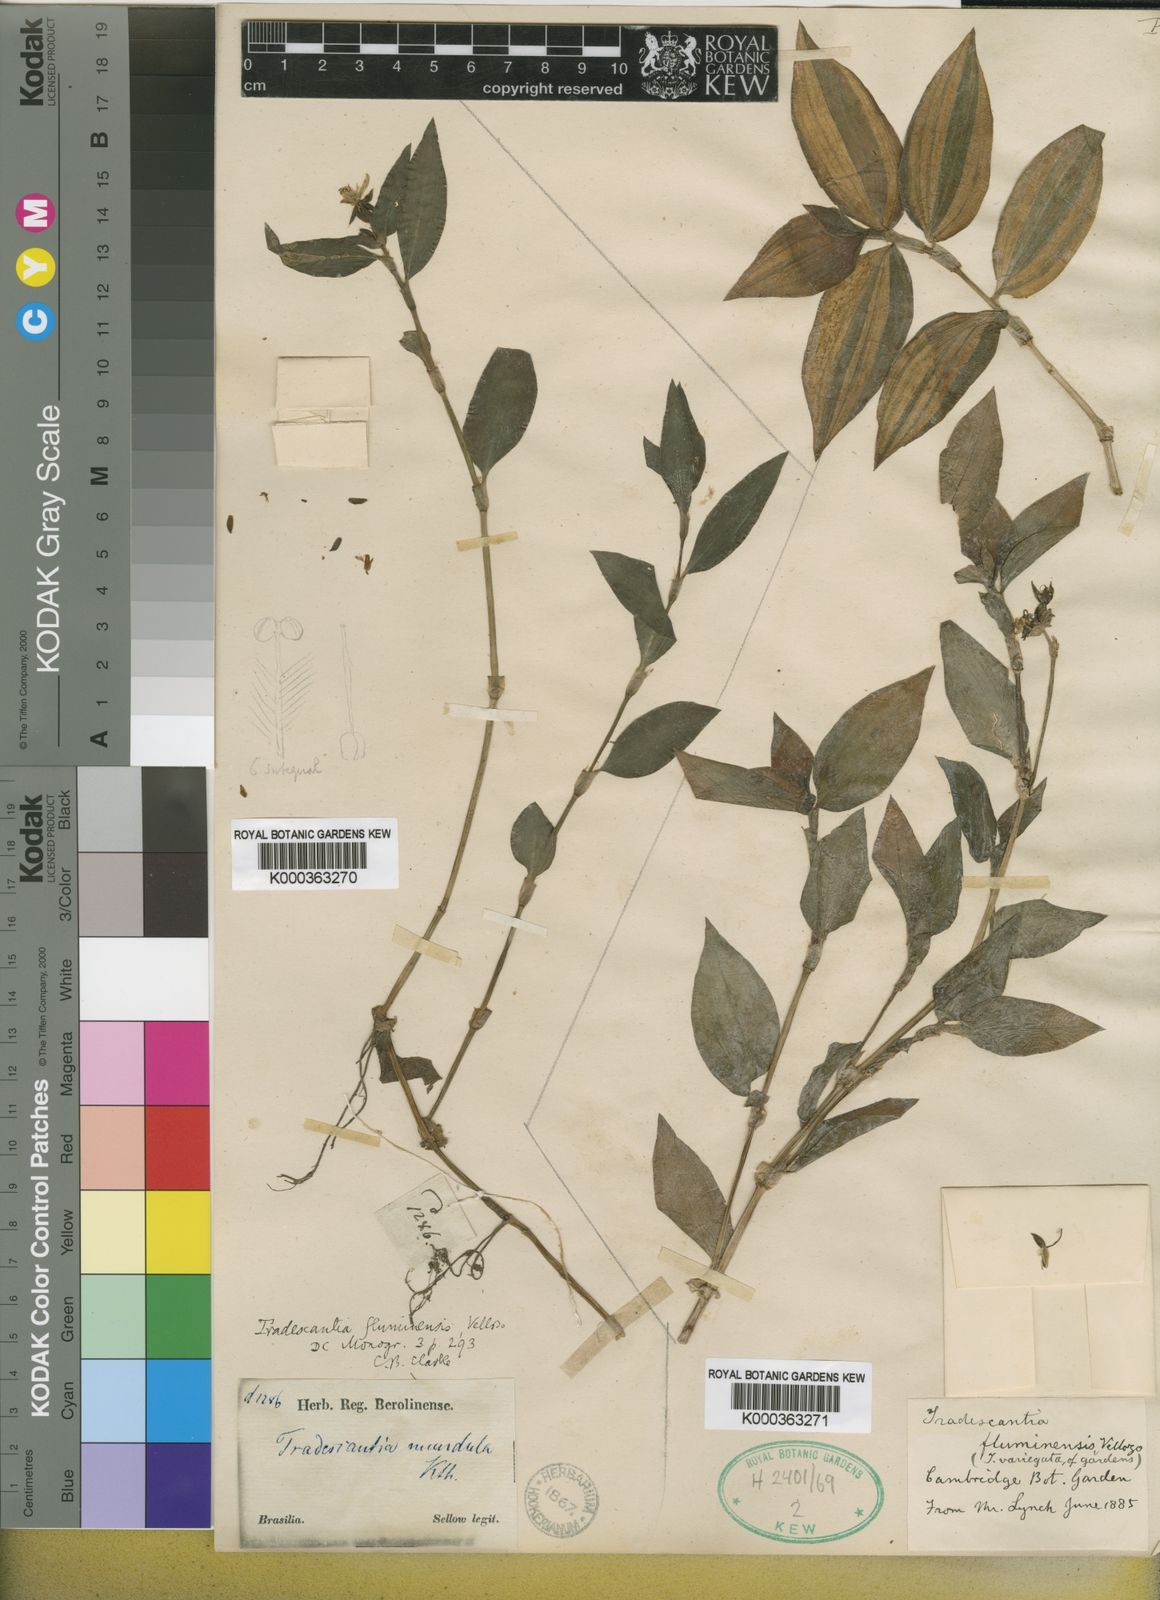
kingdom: Plantae
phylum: Tracheophyta
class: Liliopsida
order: Commelinales
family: Commelinaceae
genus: Tradescantia
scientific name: Tradescantia fluminensis
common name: Wandering-jew
